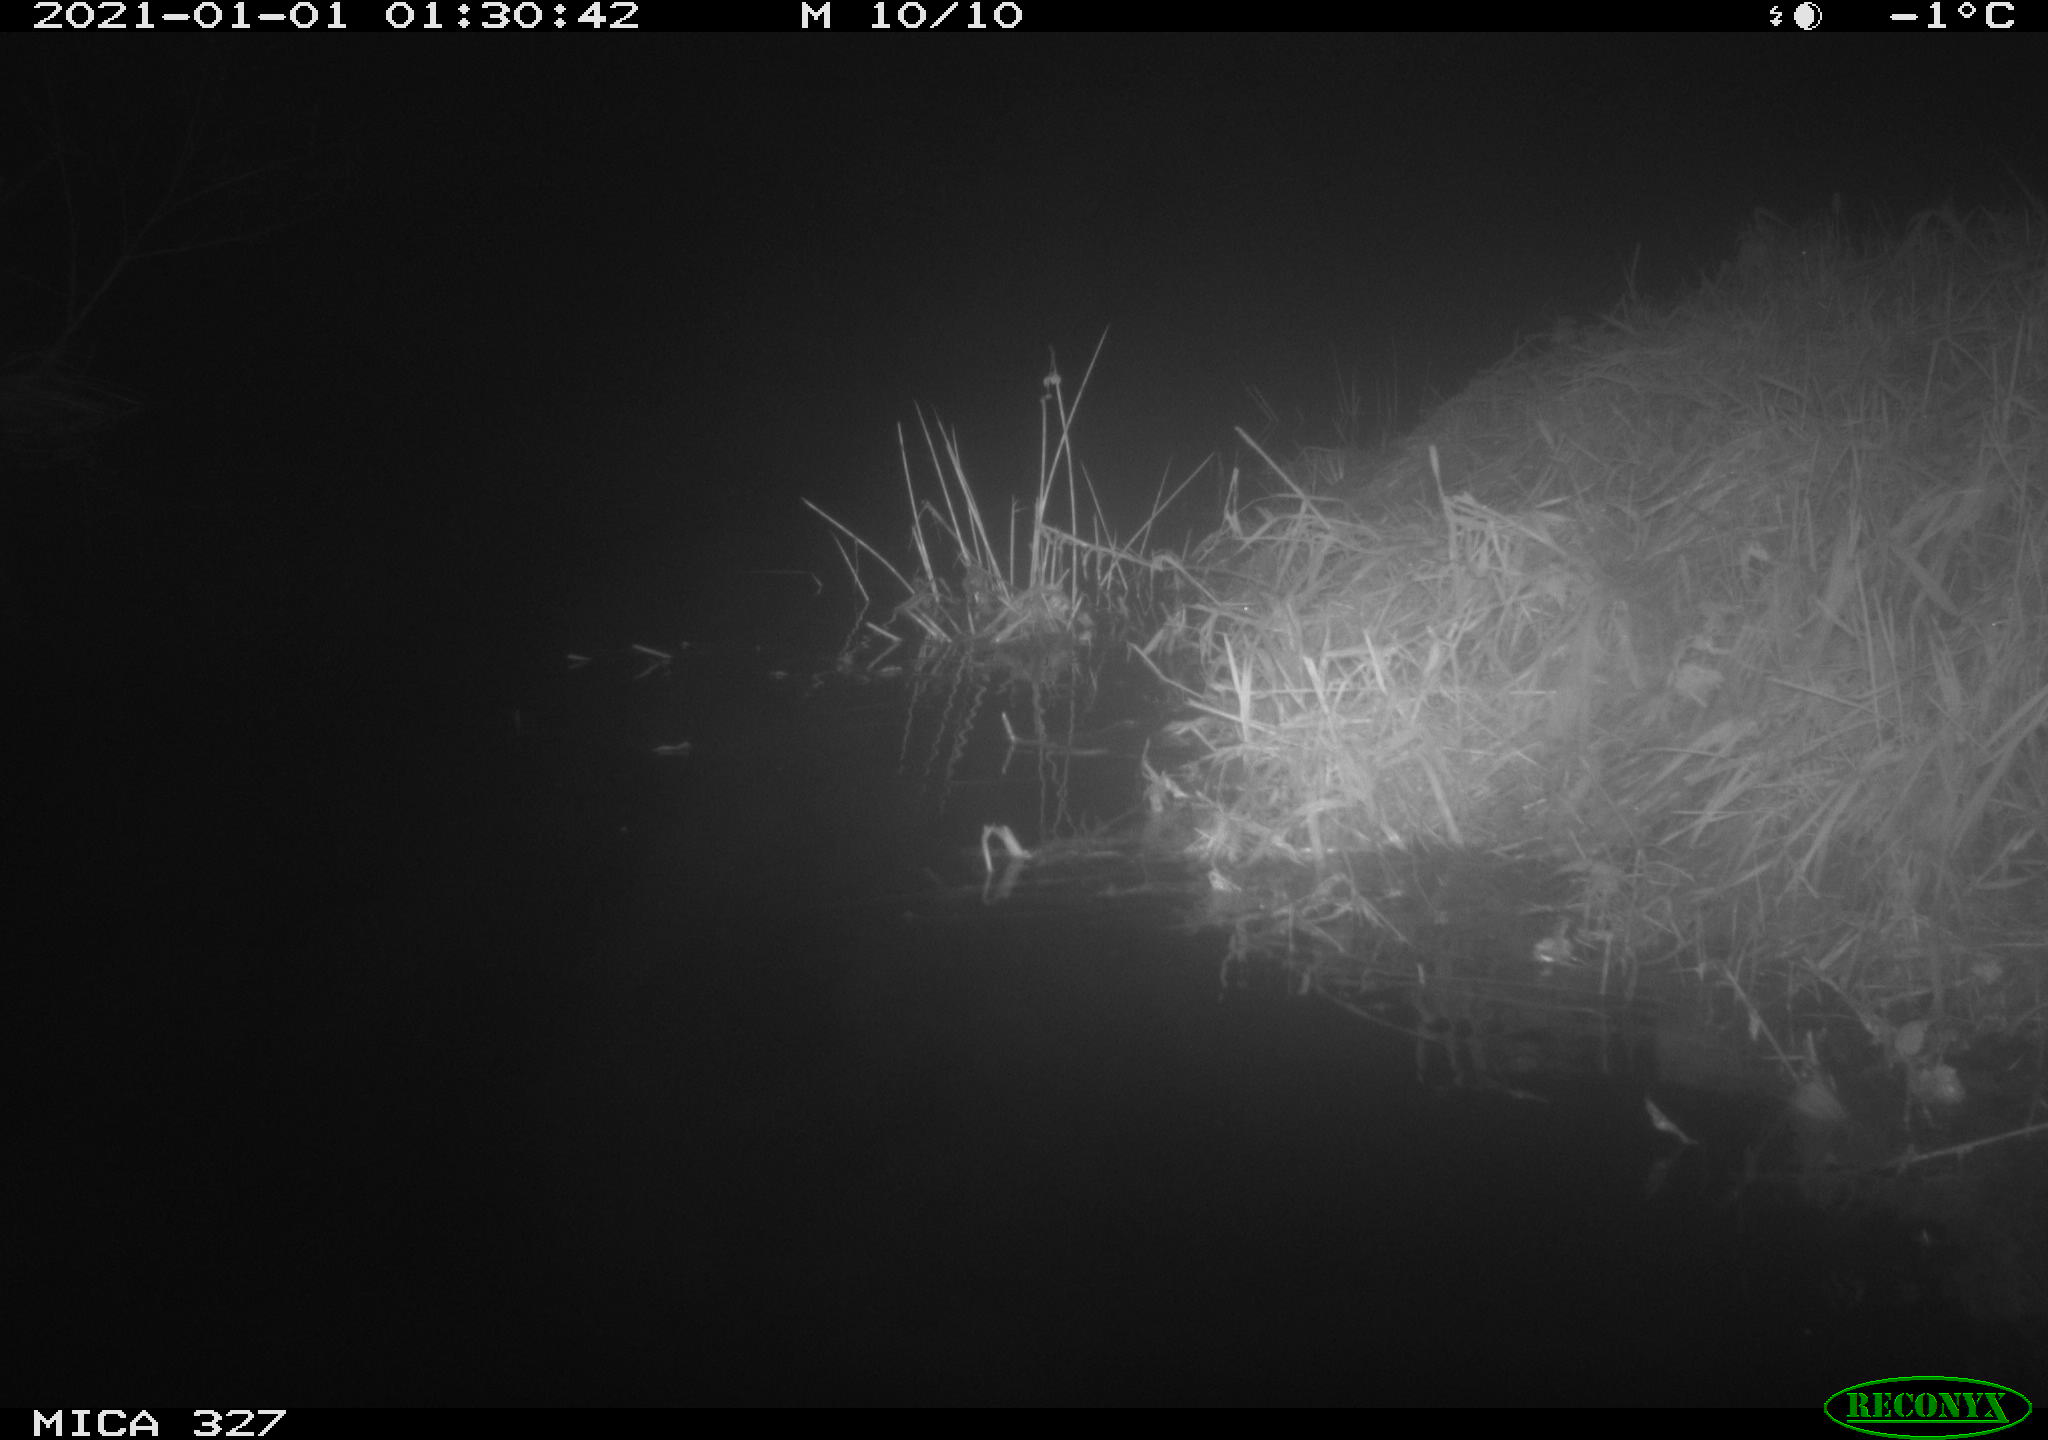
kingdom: Animalia
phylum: Chordata
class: Mammalia
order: Rodentia
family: Cricetidae
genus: Ondatra
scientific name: Ondatra zibethicus
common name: Muskrat
